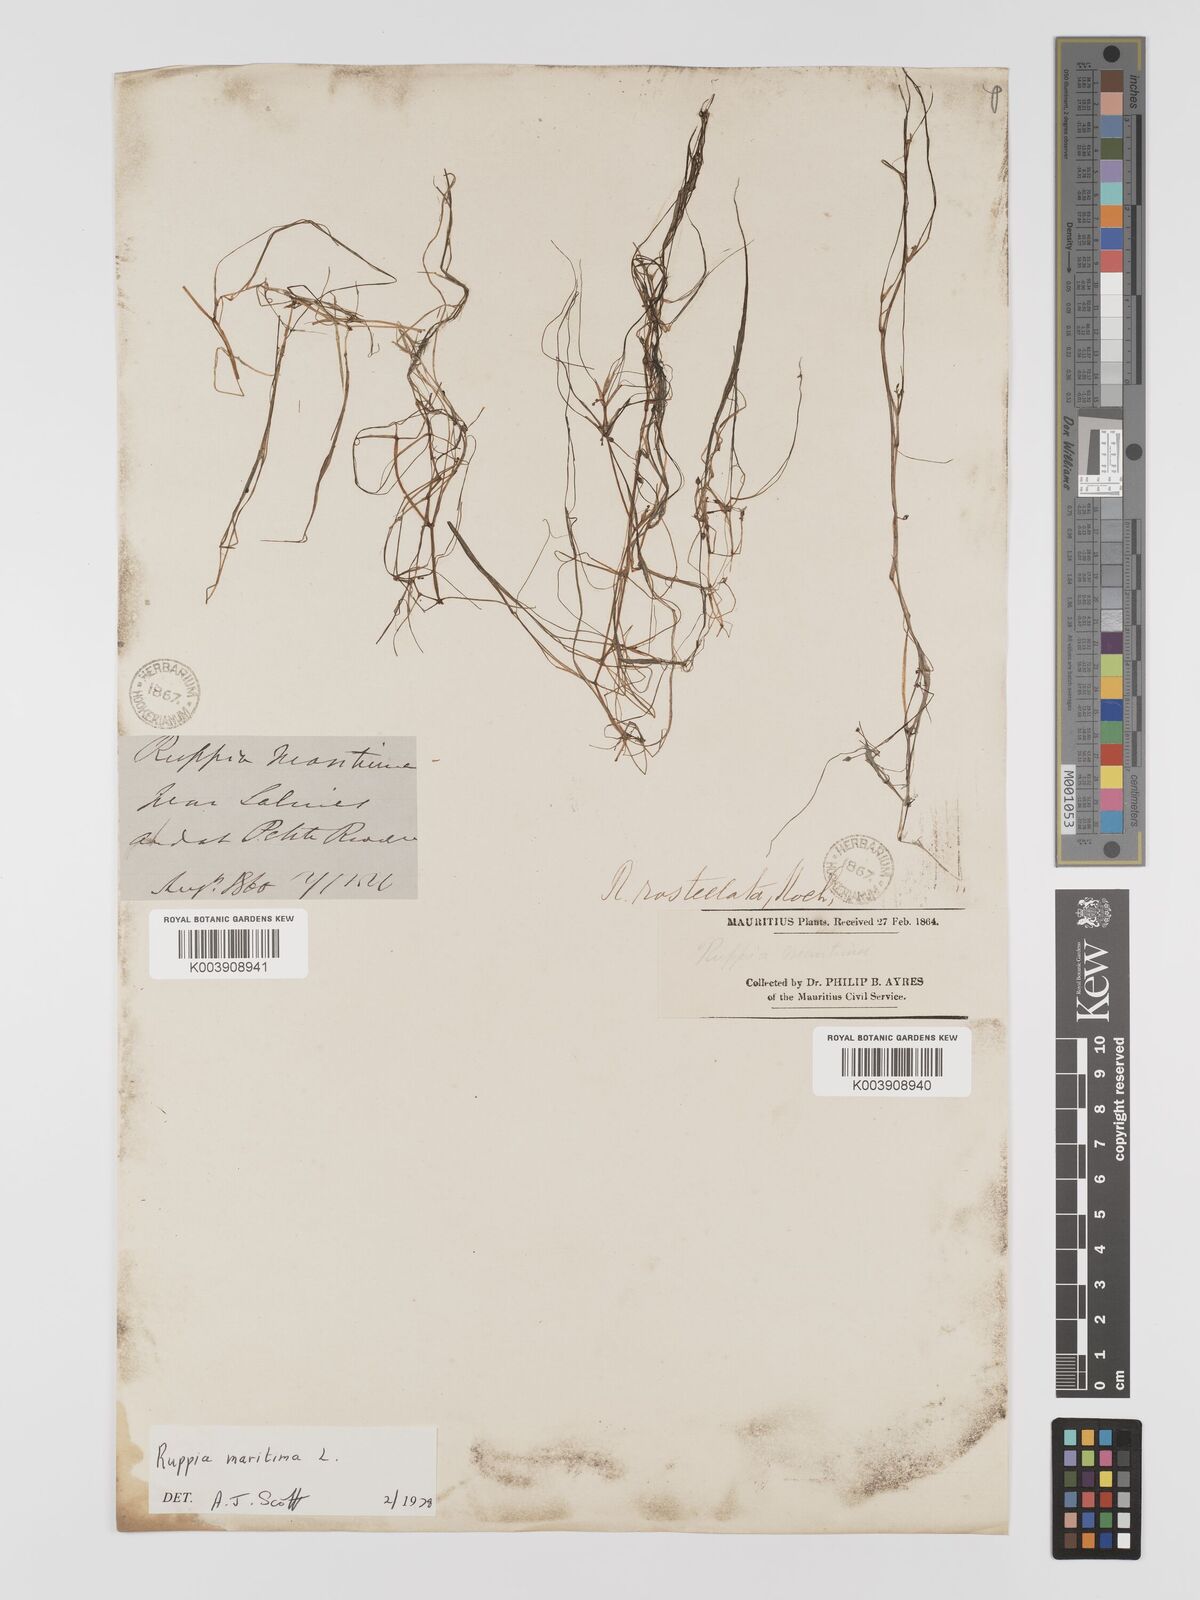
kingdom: Plantae
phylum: Tracheophyta
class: Liliopsida
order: Alismatales
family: Ruppiaceae
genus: Ruppia
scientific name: Ruppia maritima
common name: Beaked tasselweed
